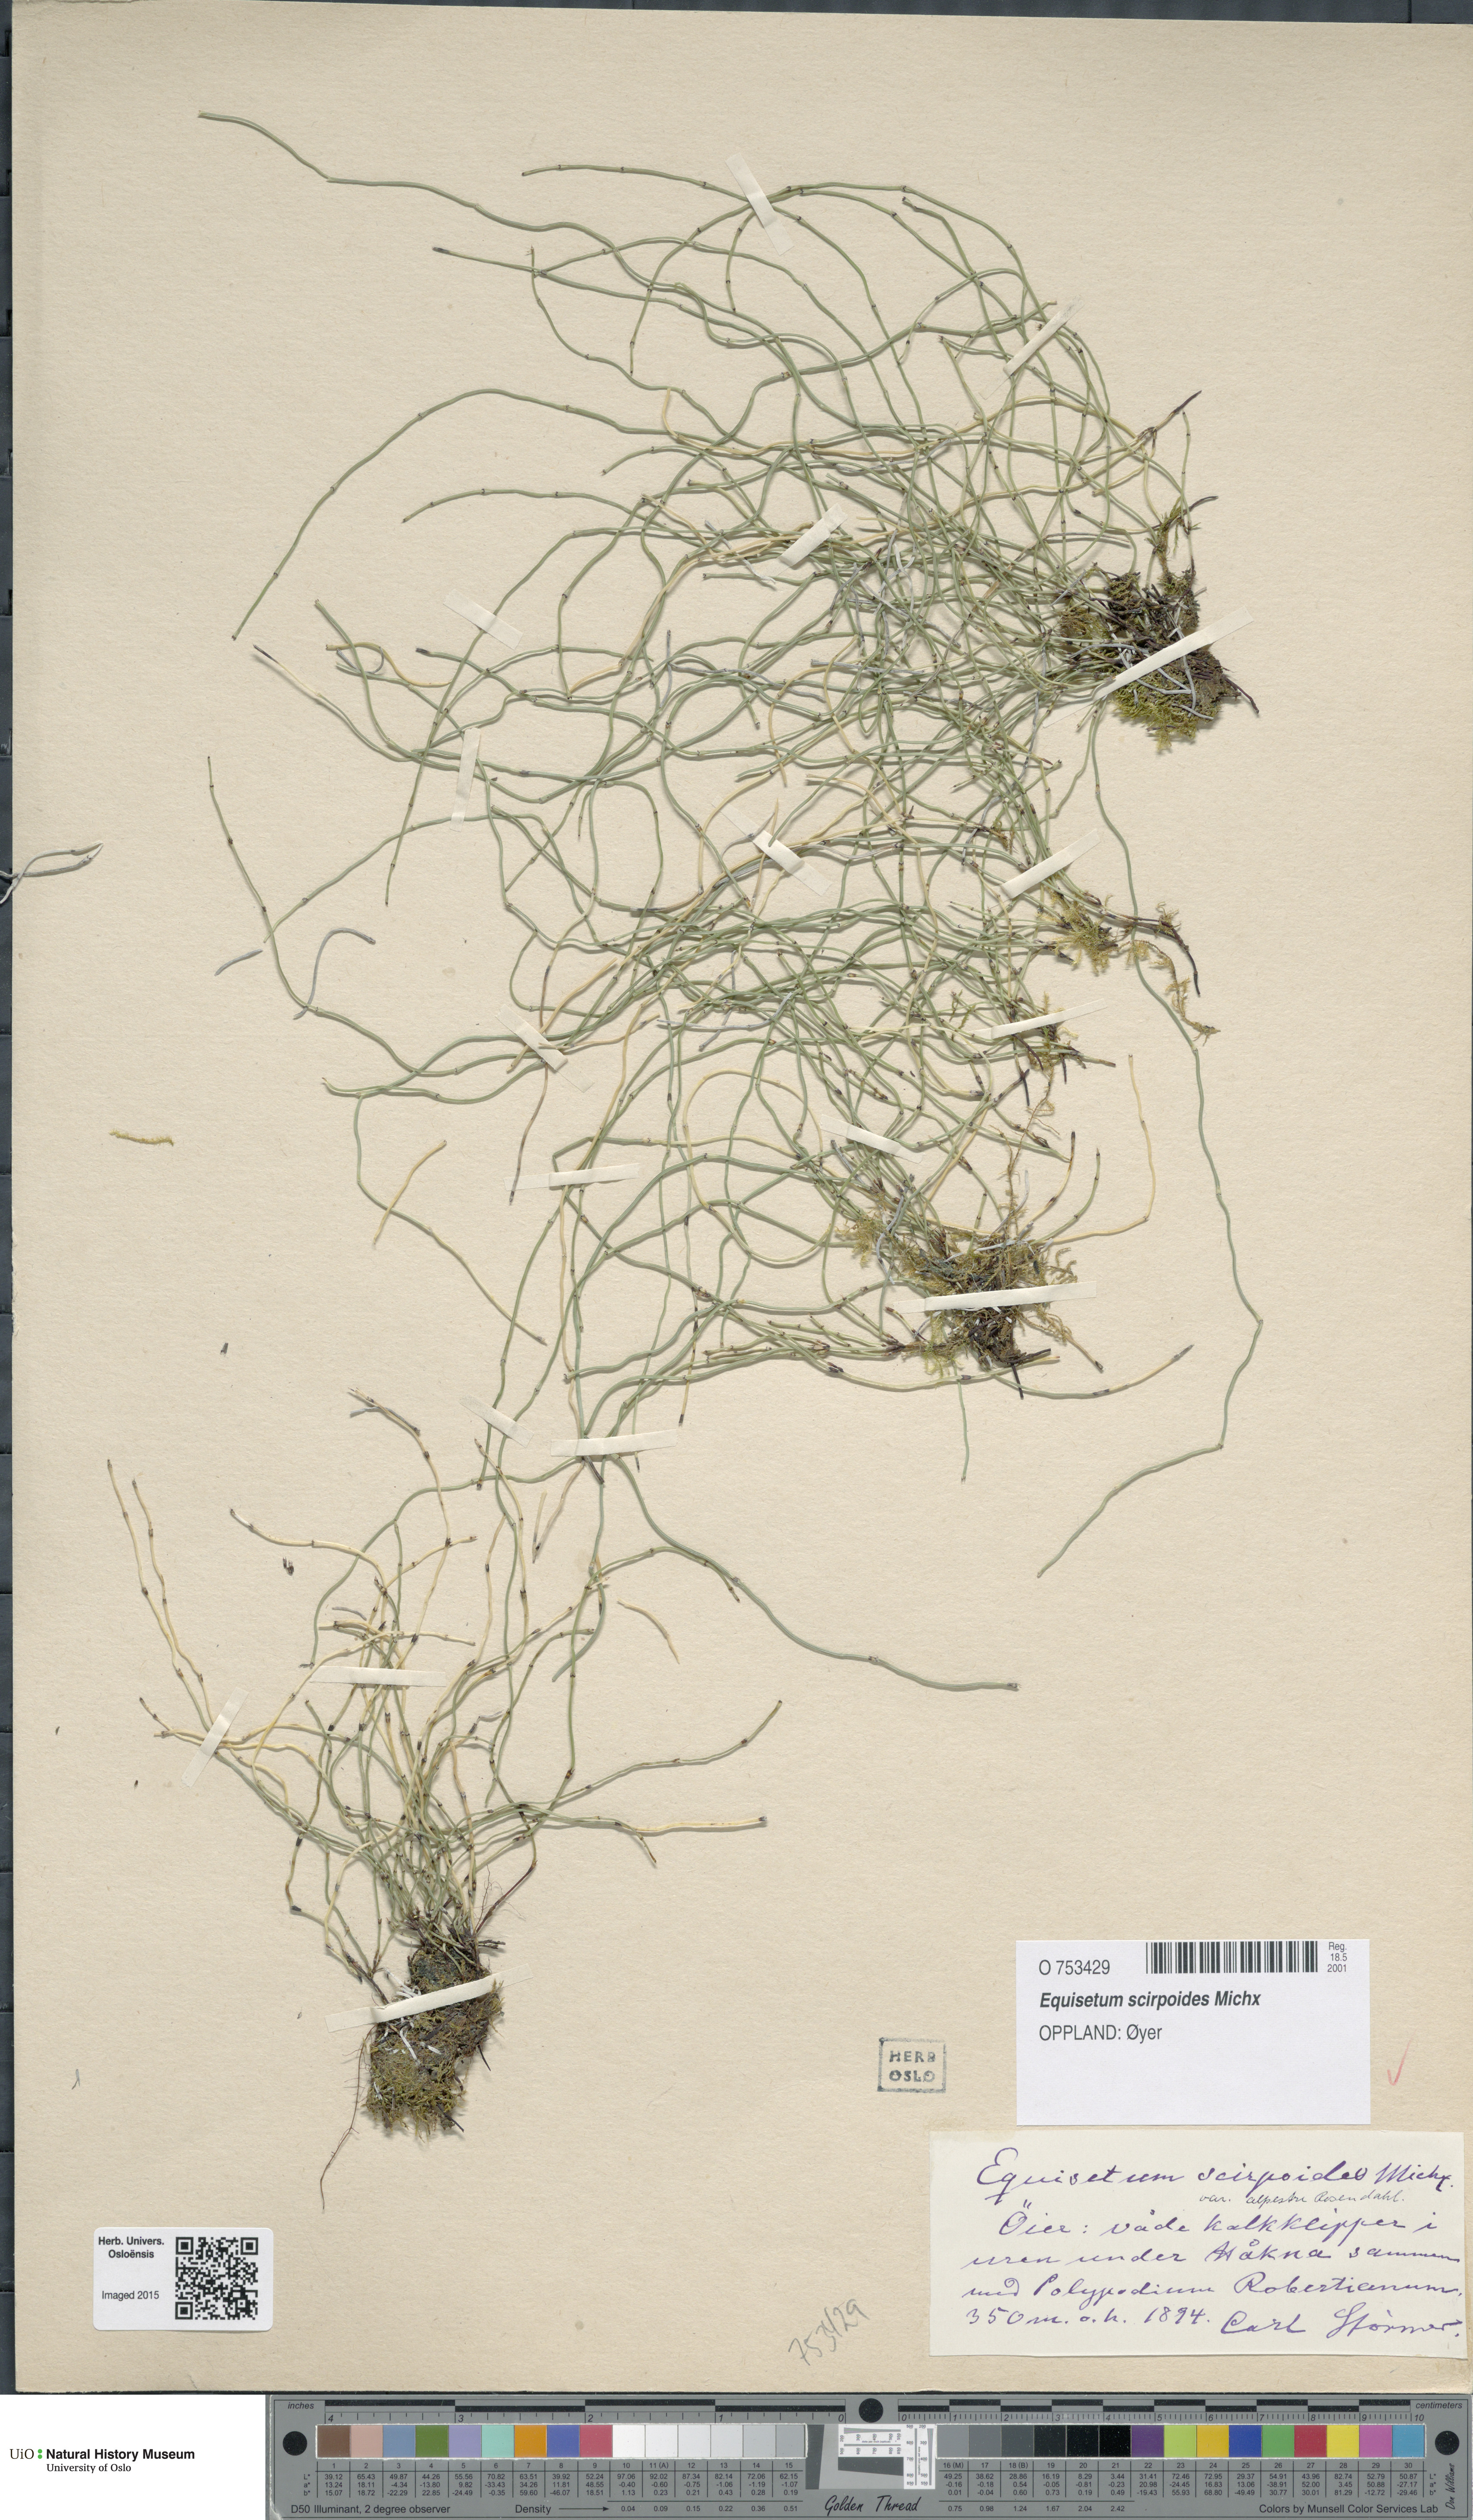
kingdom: Plantae
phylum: Tracheophyta
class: Polypodiopsida
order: Equisetales
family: Equisetaceae
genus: Equisetum
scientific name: Equisetum scirpoides
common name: Delicate horsetail
